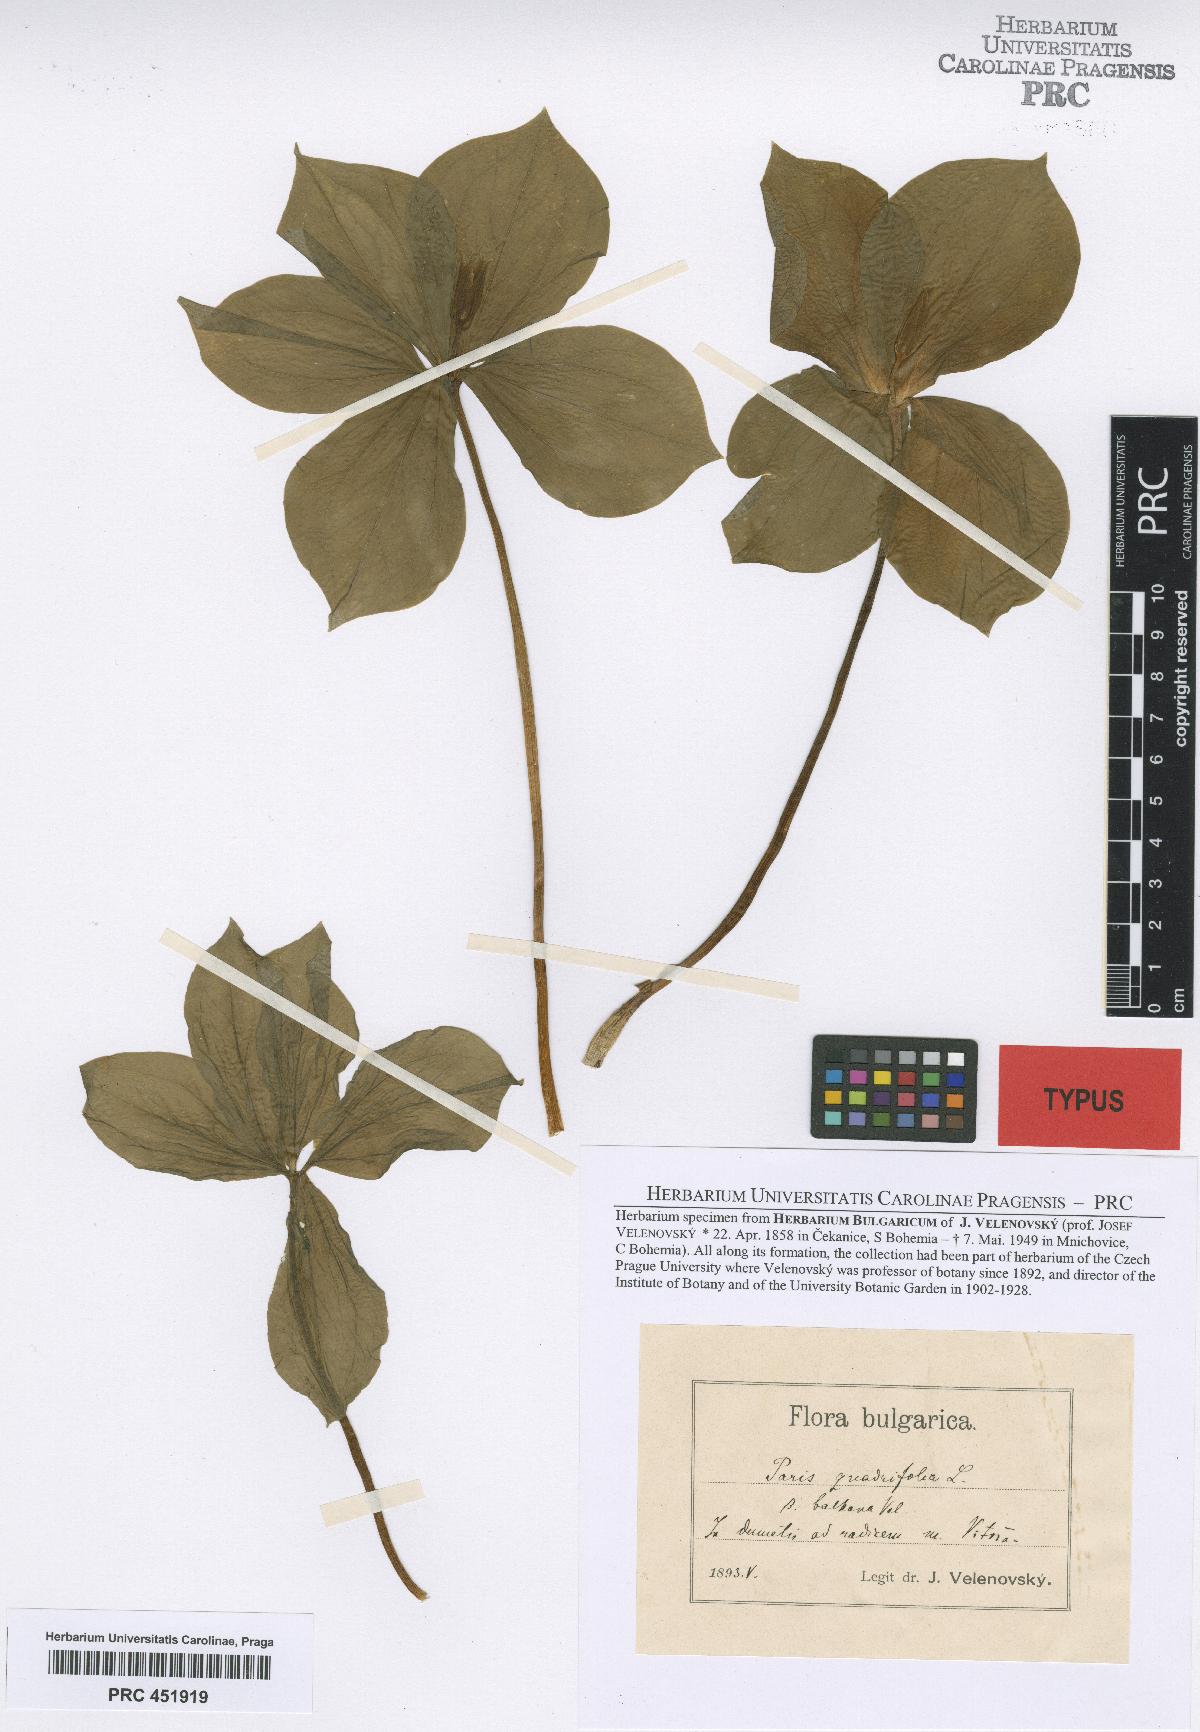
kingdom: Plantae
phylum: Tracheophyta
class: Liliopsida
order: Liliales
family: Melanthiaceae
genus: Paris
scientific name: Paris quadrifolia
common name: Herb-paris
